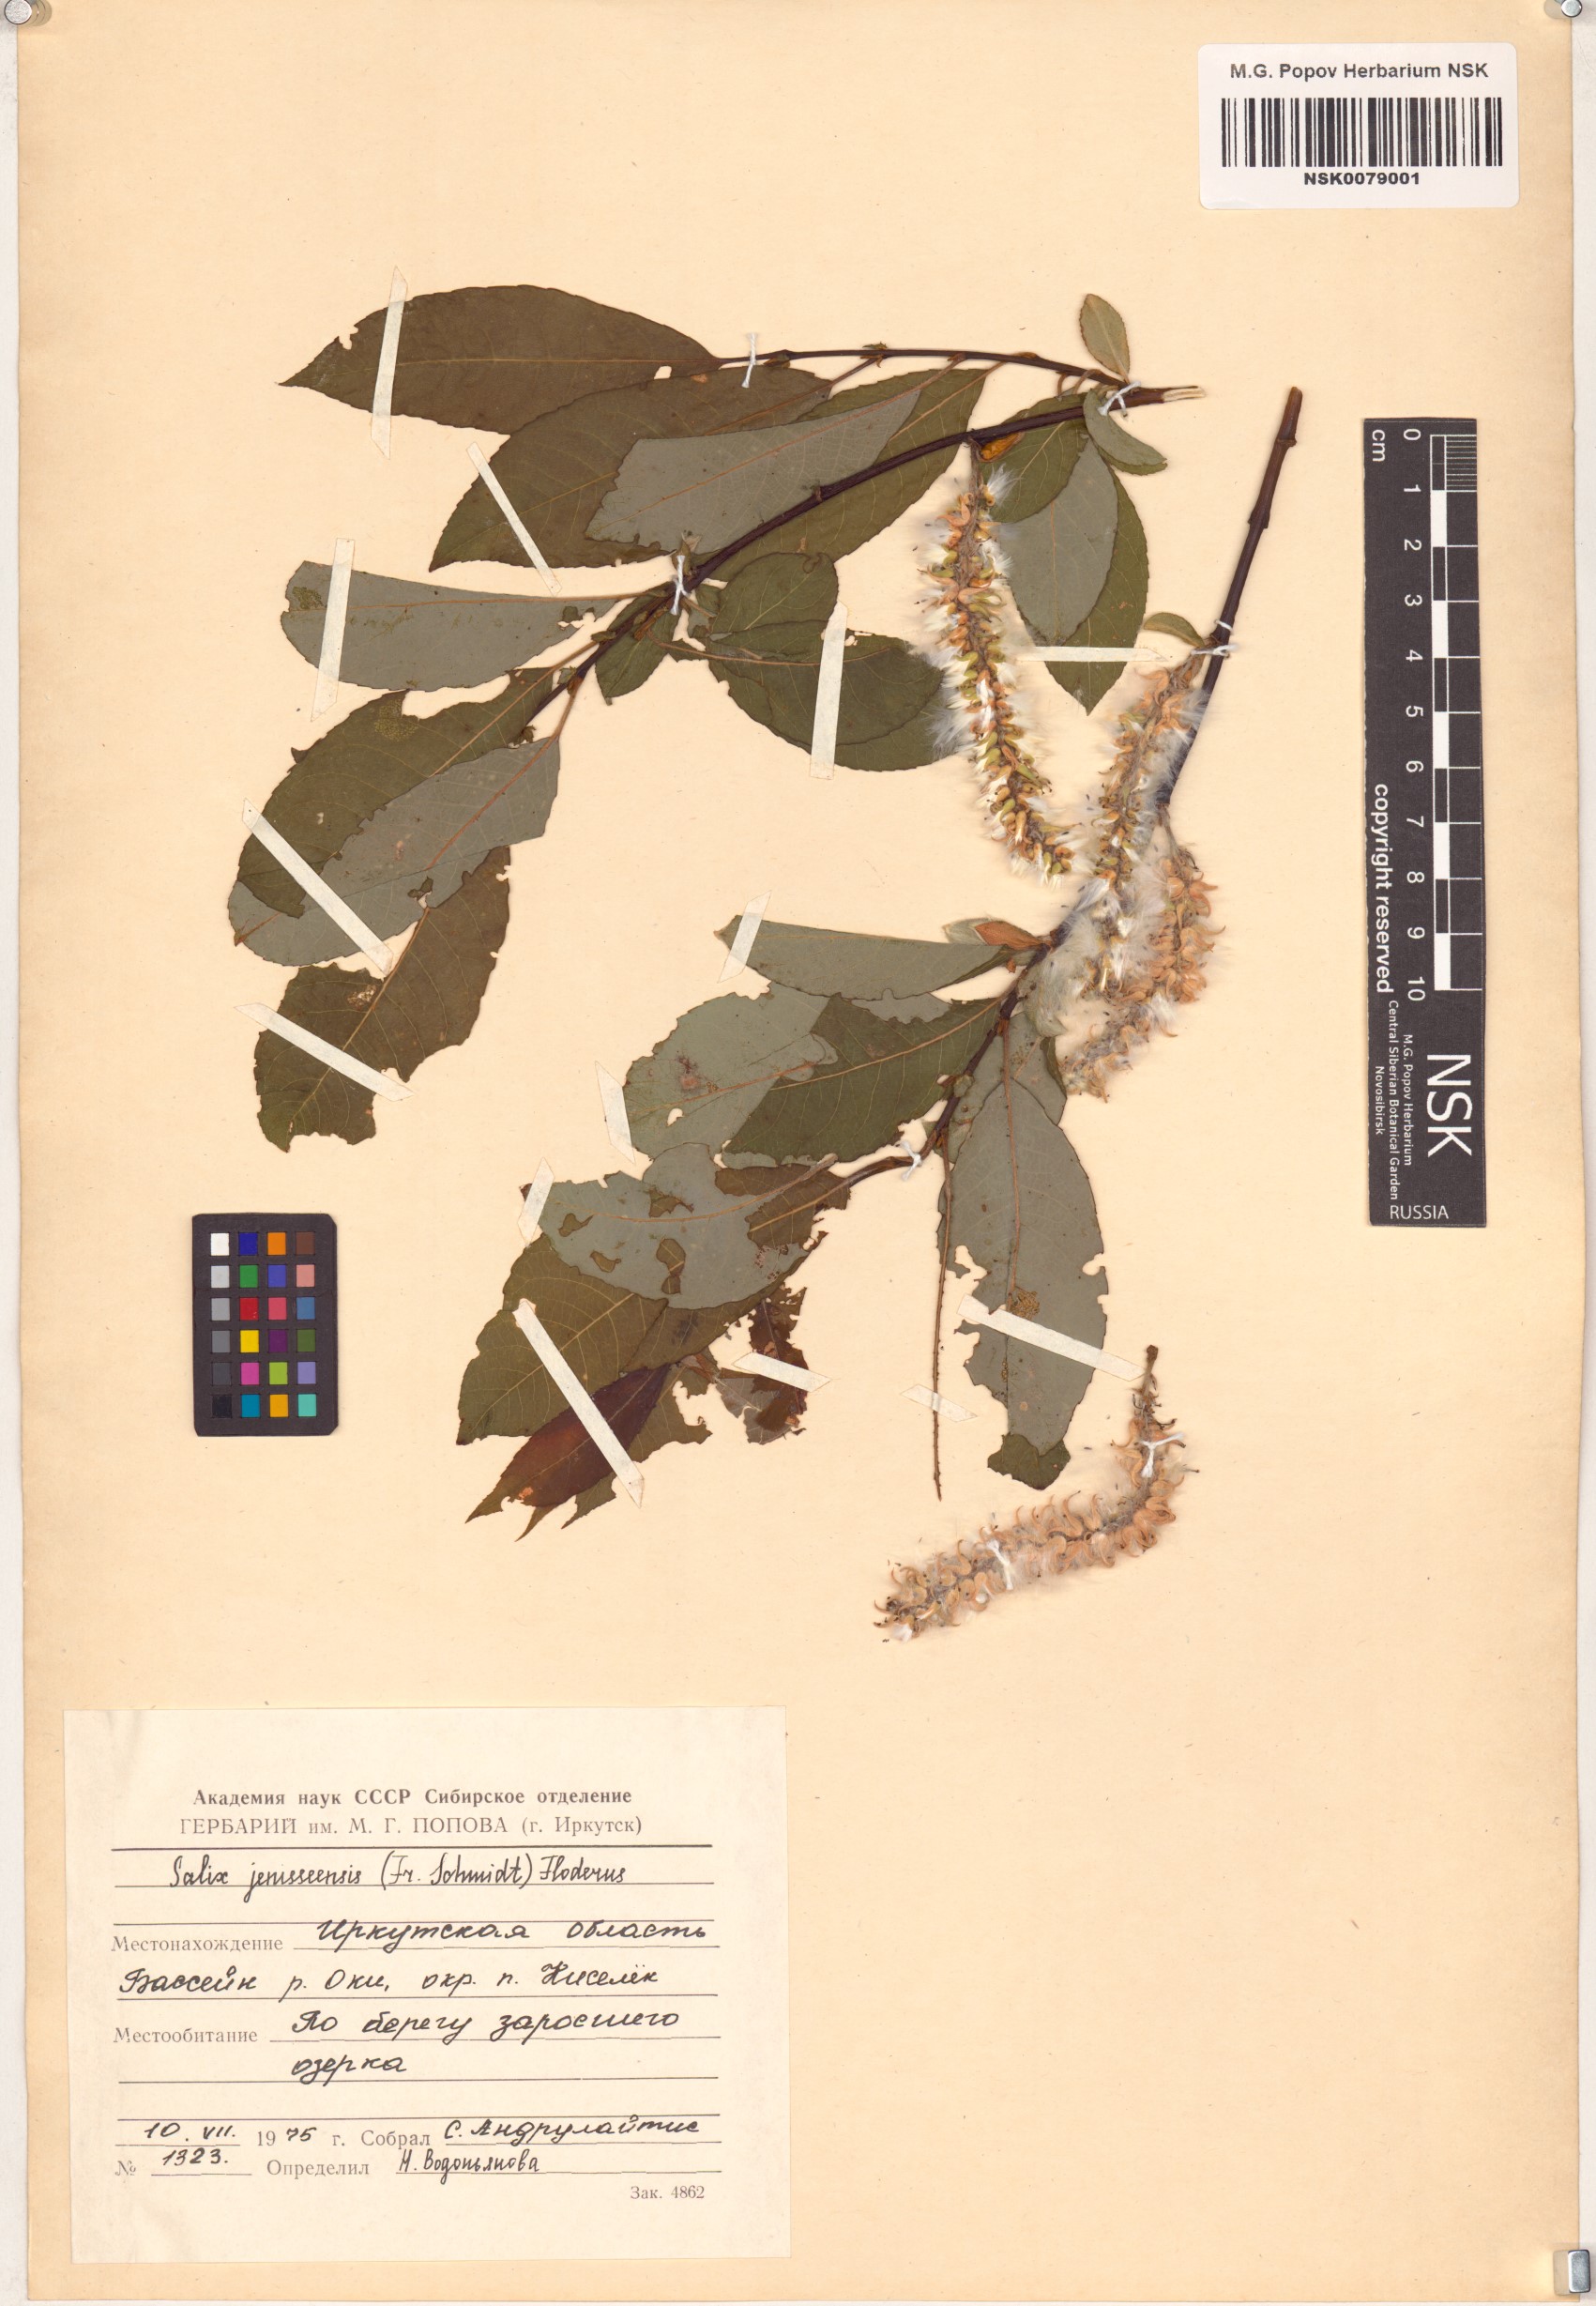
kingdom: Plantae
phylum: Tracheophyta
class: Magnoliopsida
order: Malpighiales
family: Salicaceae
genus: Salix
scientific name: Salix jenisseensis
